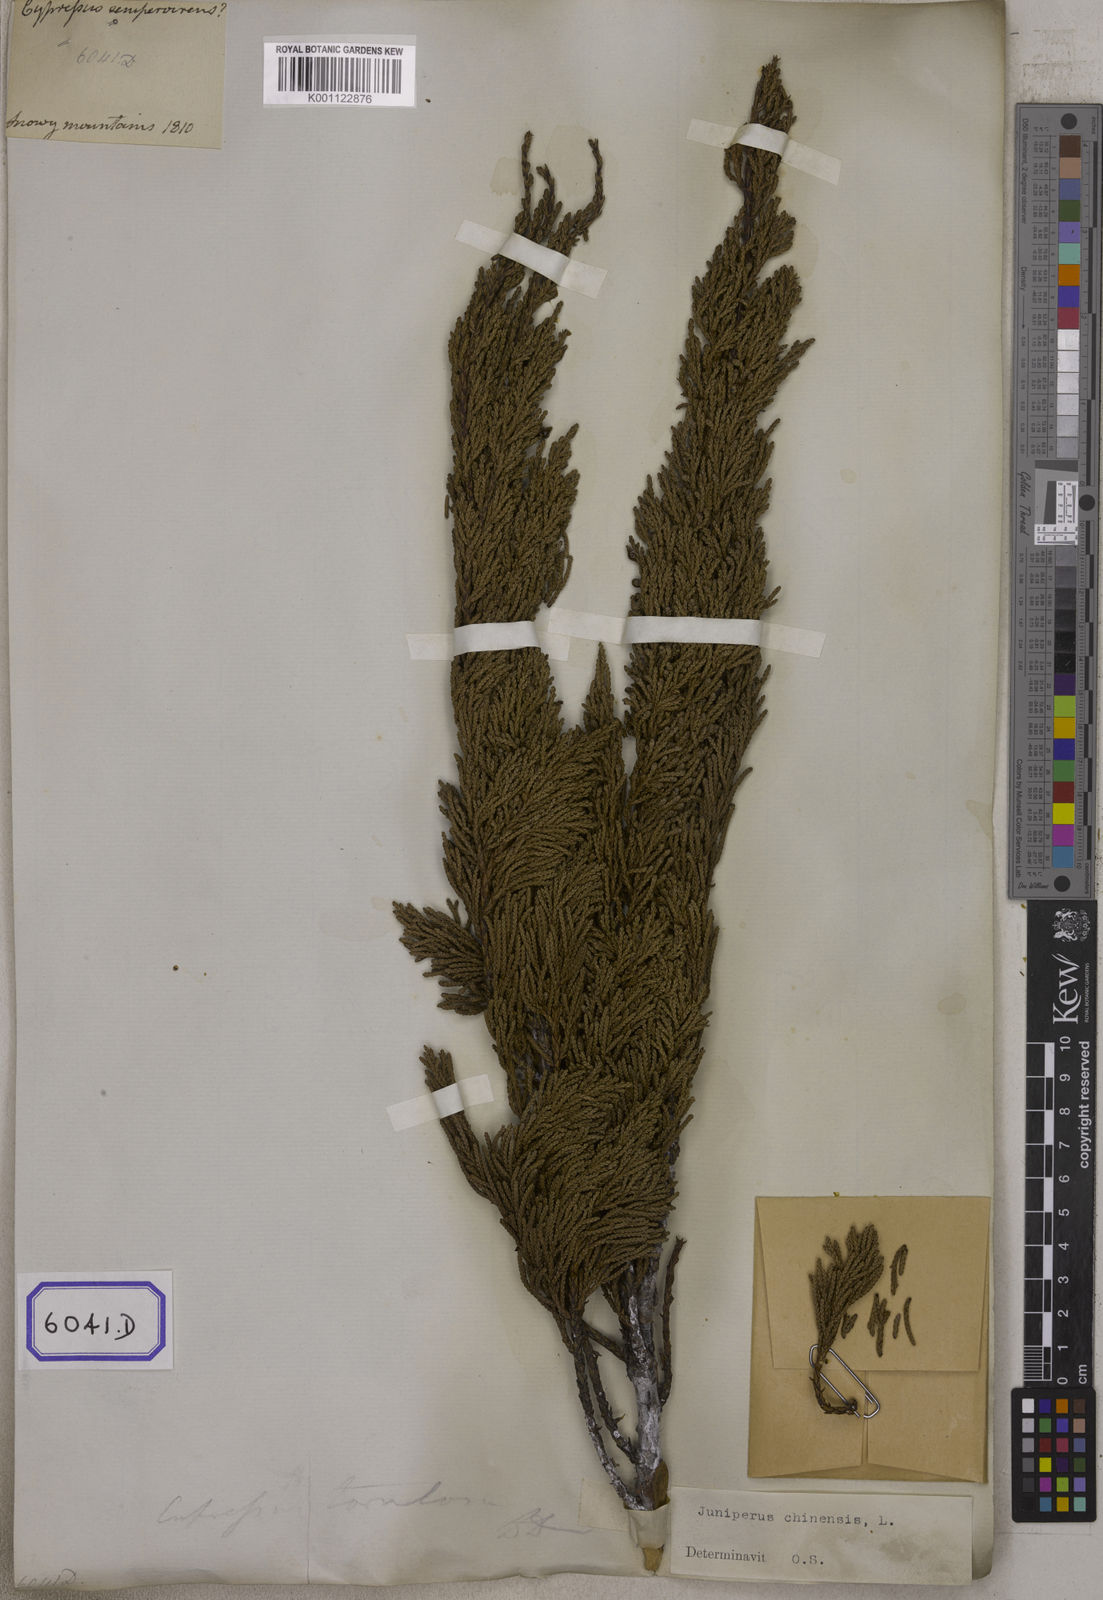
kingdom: Plantae
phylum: Tracheophyta
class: Pinopsida
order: Pinales
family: Cupressaceae
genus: Juniperus
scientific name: Juniperus semiglobosa
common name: Pencil cedar
